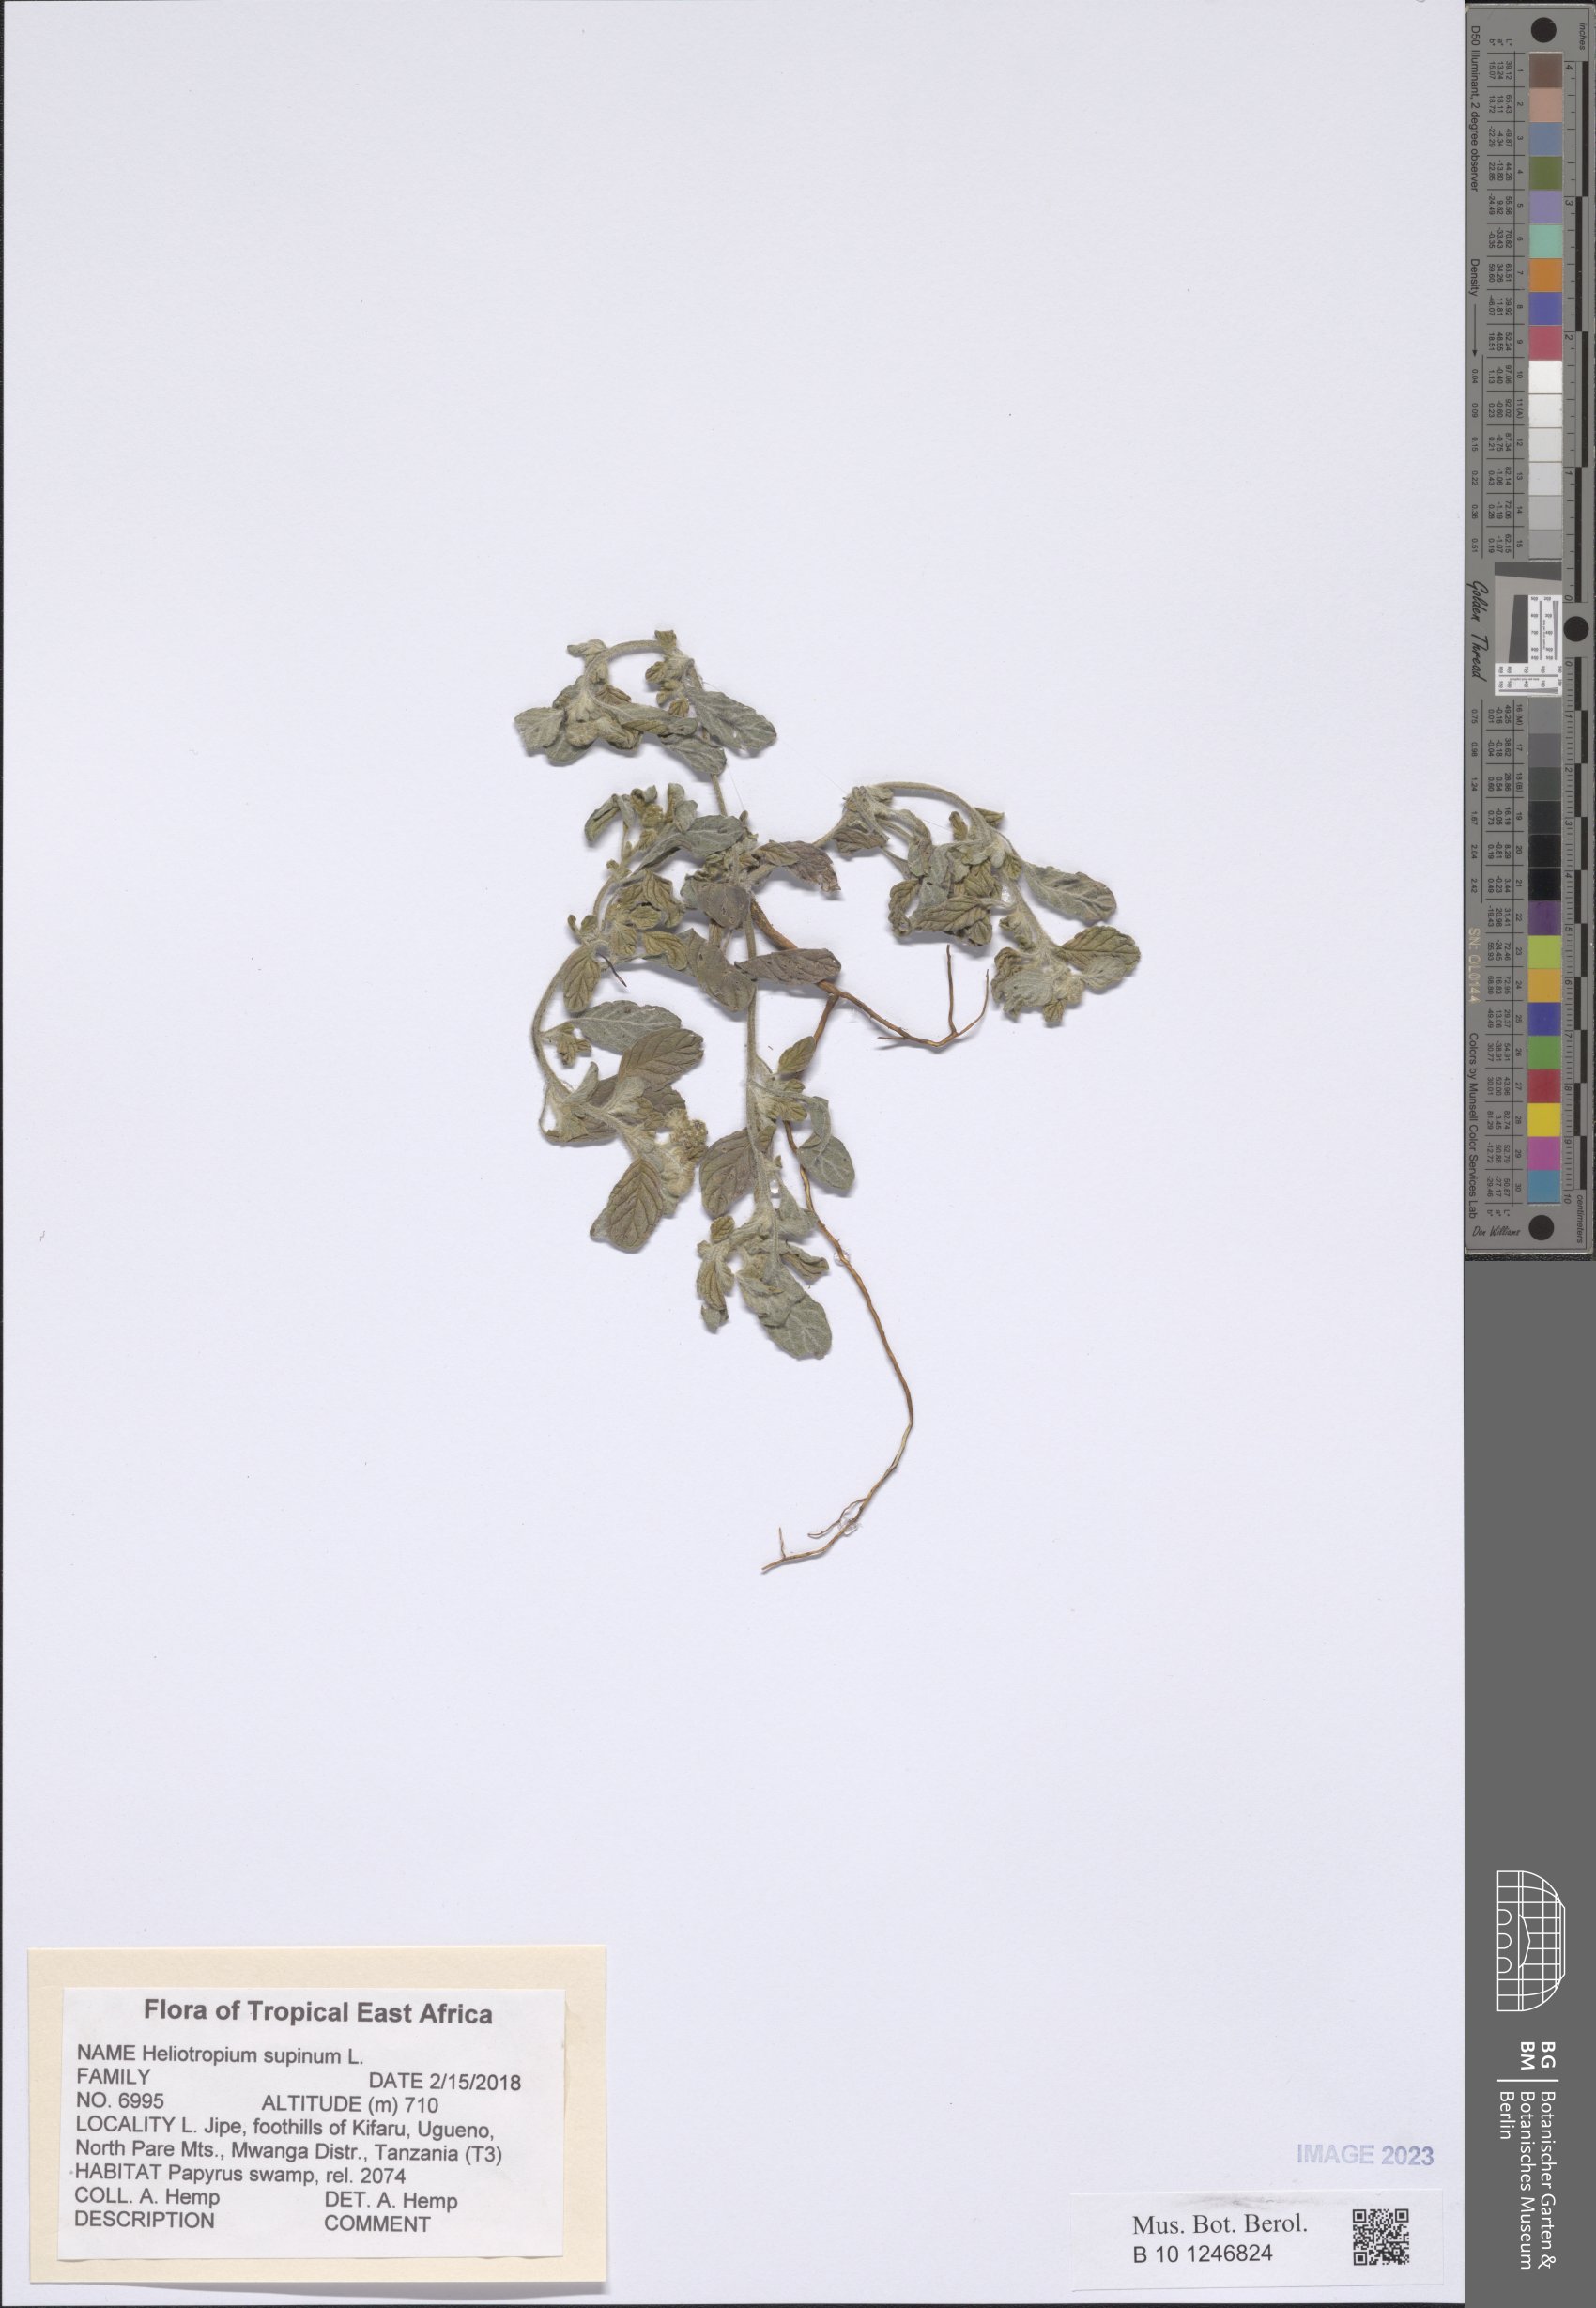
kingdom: Plantae
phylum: Tracheophyta
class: Magnoliopsida
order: Boraginales
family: Heliotropiaceae
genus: Heliotropium
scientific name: Heliotropium supinum
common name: Dwarf heliotrope
